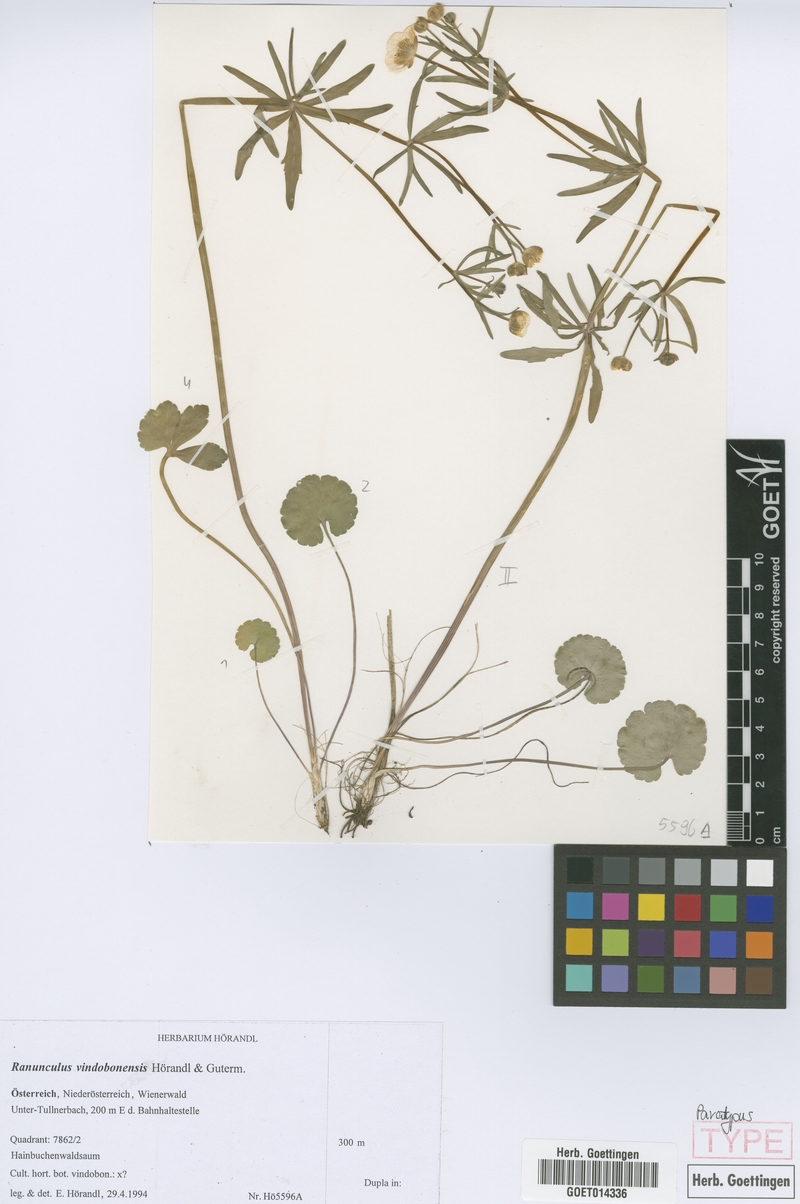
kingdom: Plantae
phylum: Tracheophyta
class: Magnoliopsida
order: Ranunculales
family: Ranunculaceae
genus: Ranunculus
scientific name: Ranunculus vindobonensis
